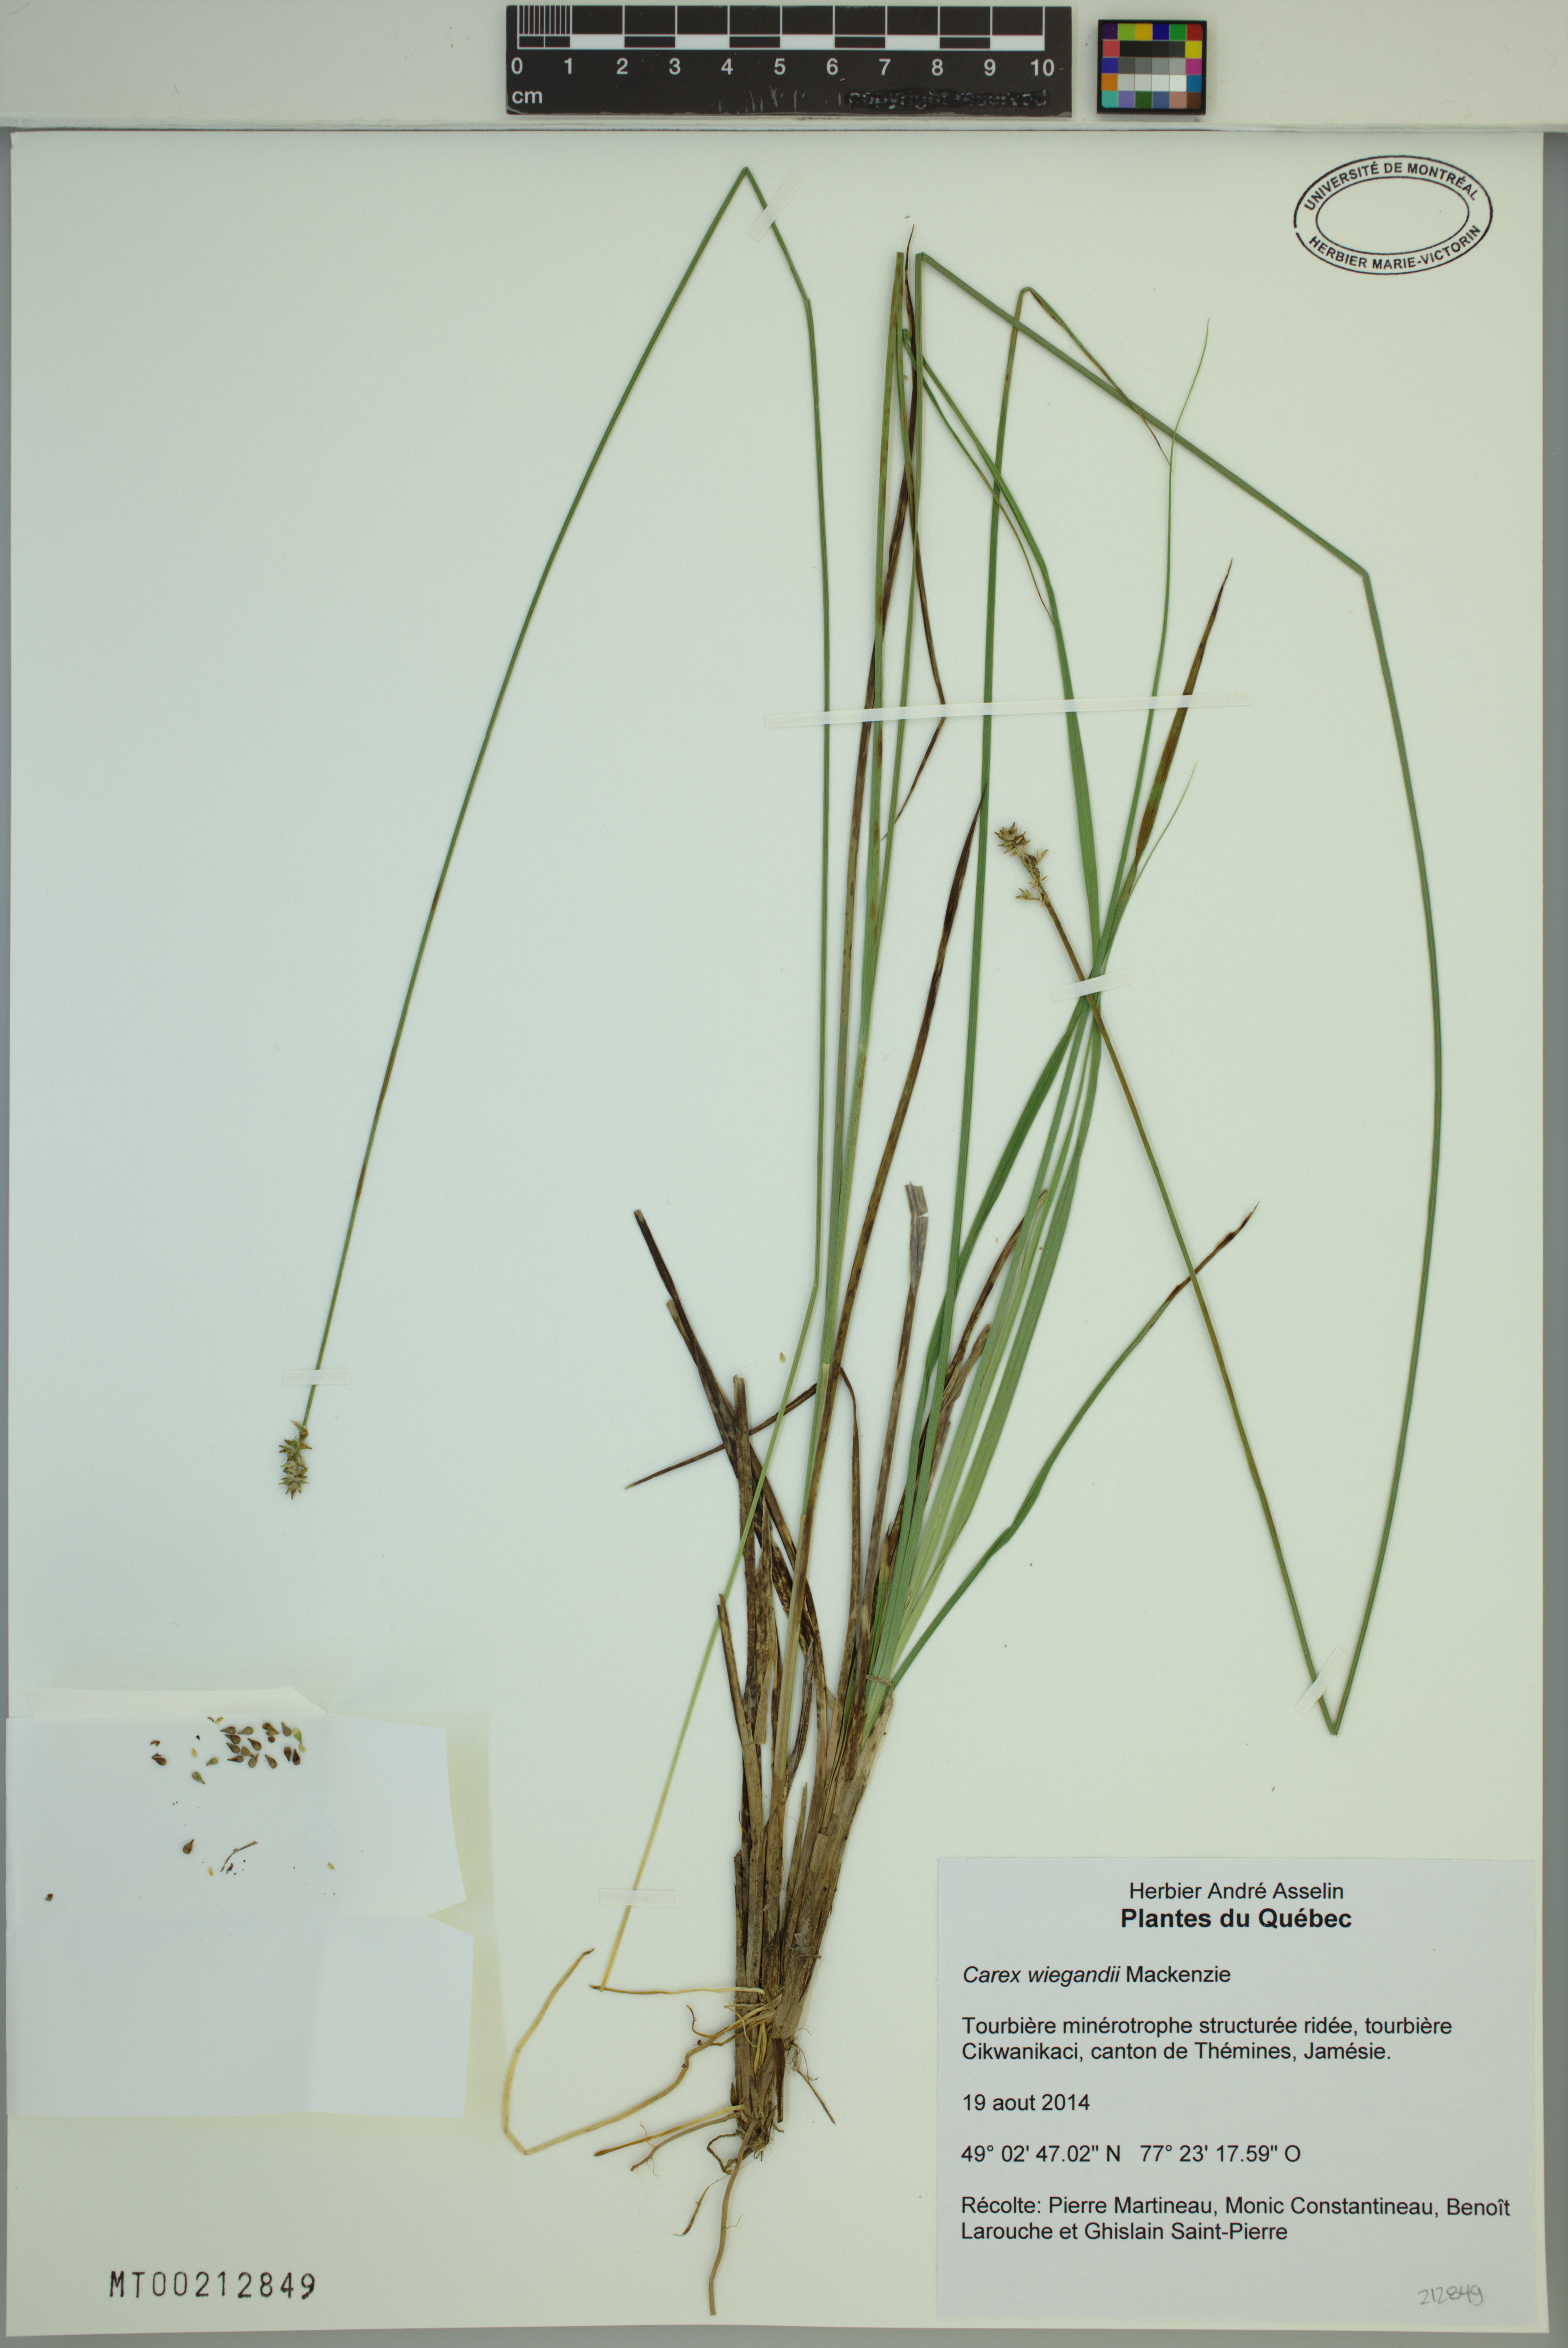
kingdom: Plantae
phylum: Tracheophyta
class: Liliopsida
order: Poales
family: Cyperaceae
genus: Carex
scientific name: Carex wiegandii
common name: Wiegand's sedge
